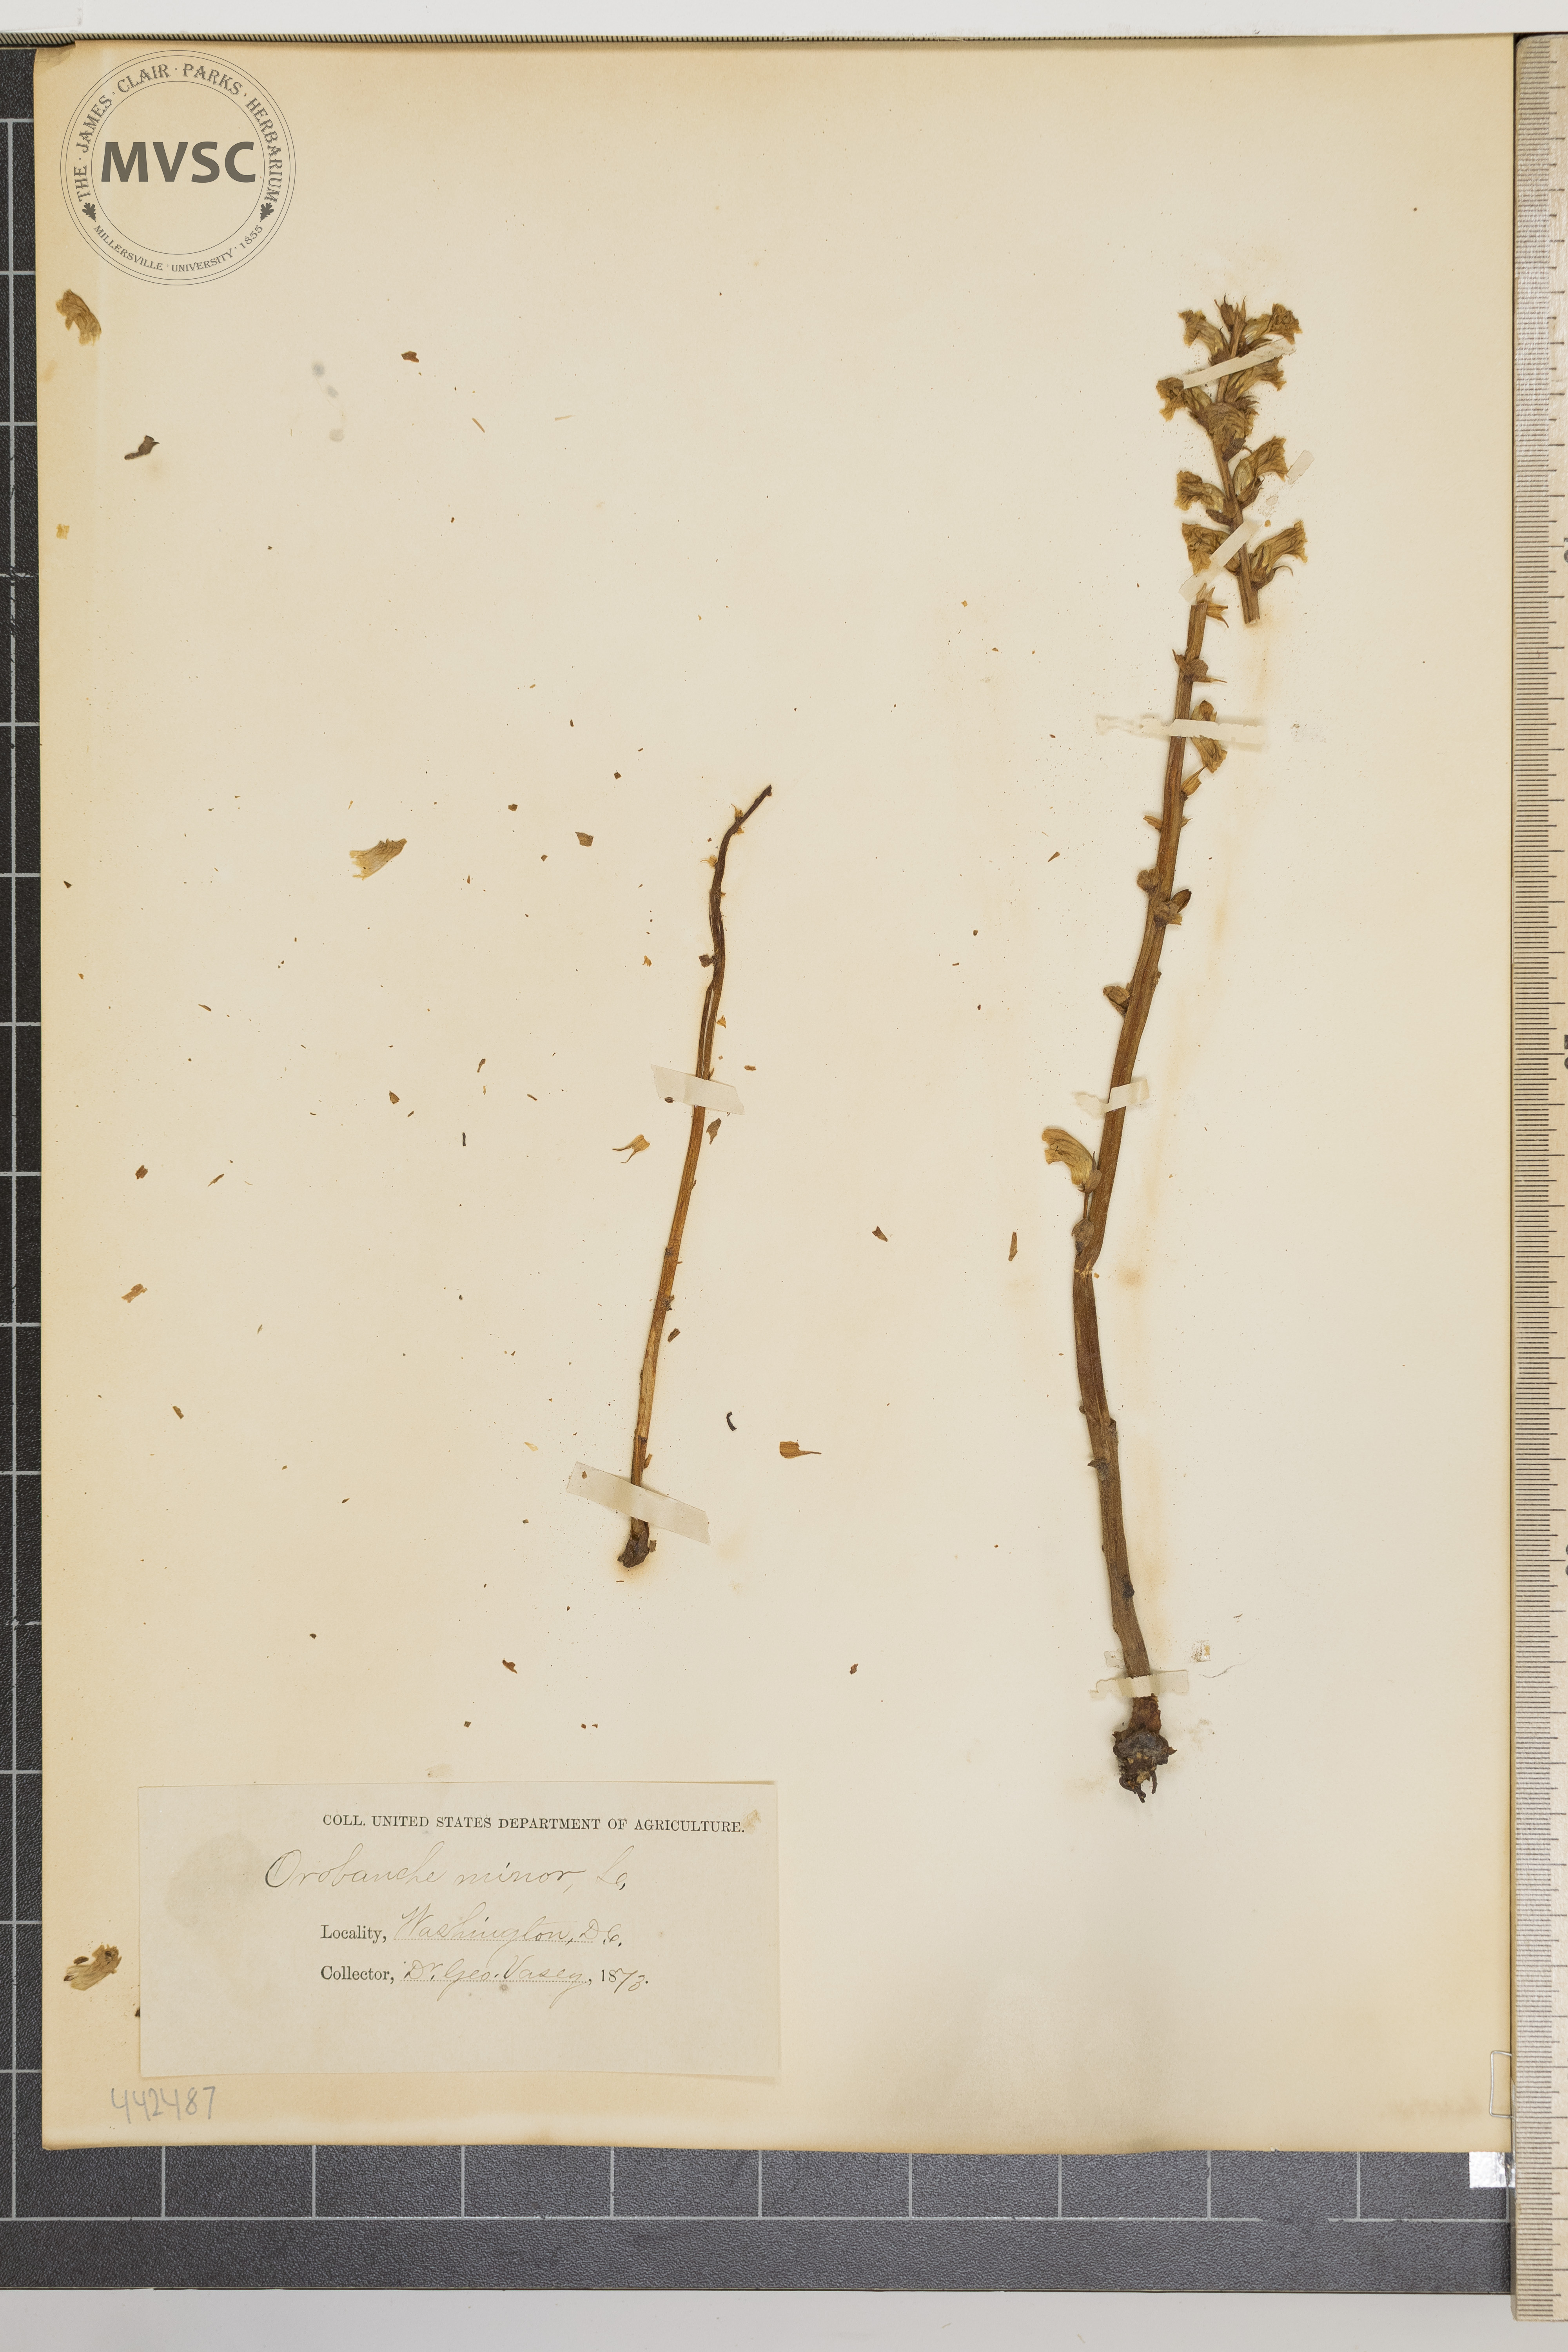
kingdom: Plantae
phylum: Tracheophyta
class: Magnoliopsida
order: Lamiales
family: Orobanchaceae
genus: Orobanche
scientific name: Orobanche minor
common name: Common broomrape
